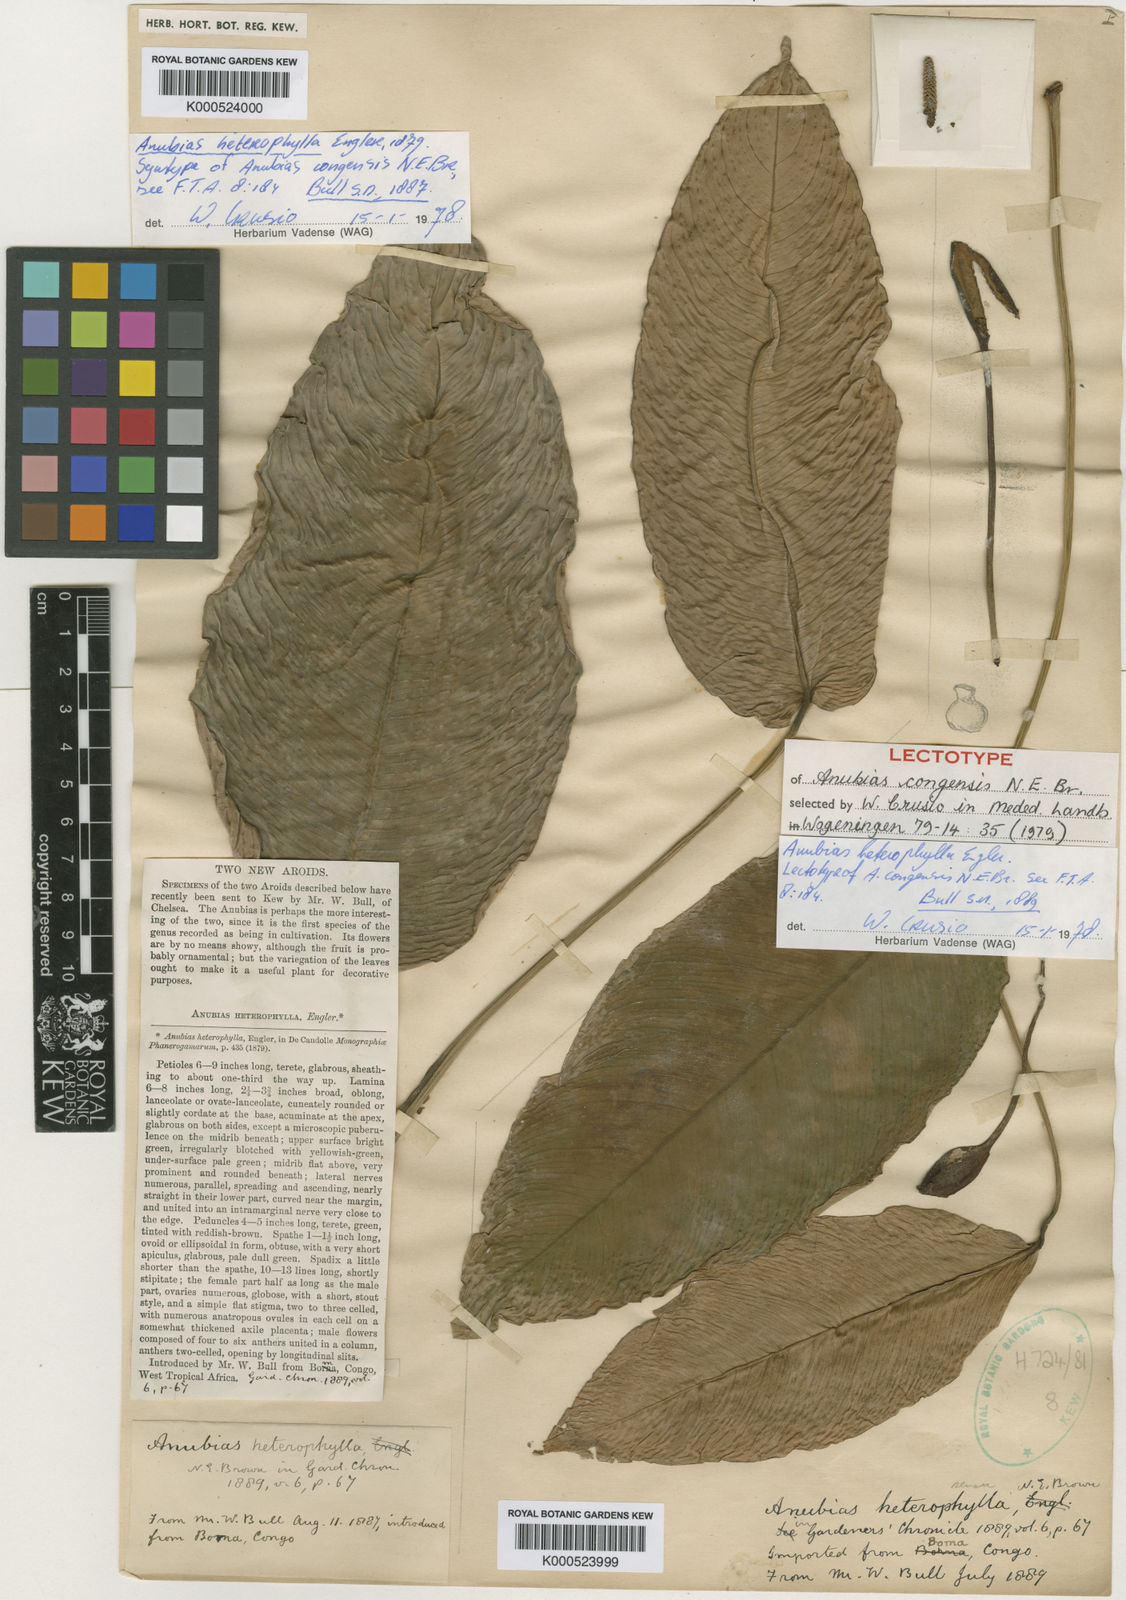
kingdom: Plantae
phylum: Tracheophyta
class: Liliopsida
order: Alismatales
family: Araceae
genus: Anubias
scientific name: Anubias heterophylla
